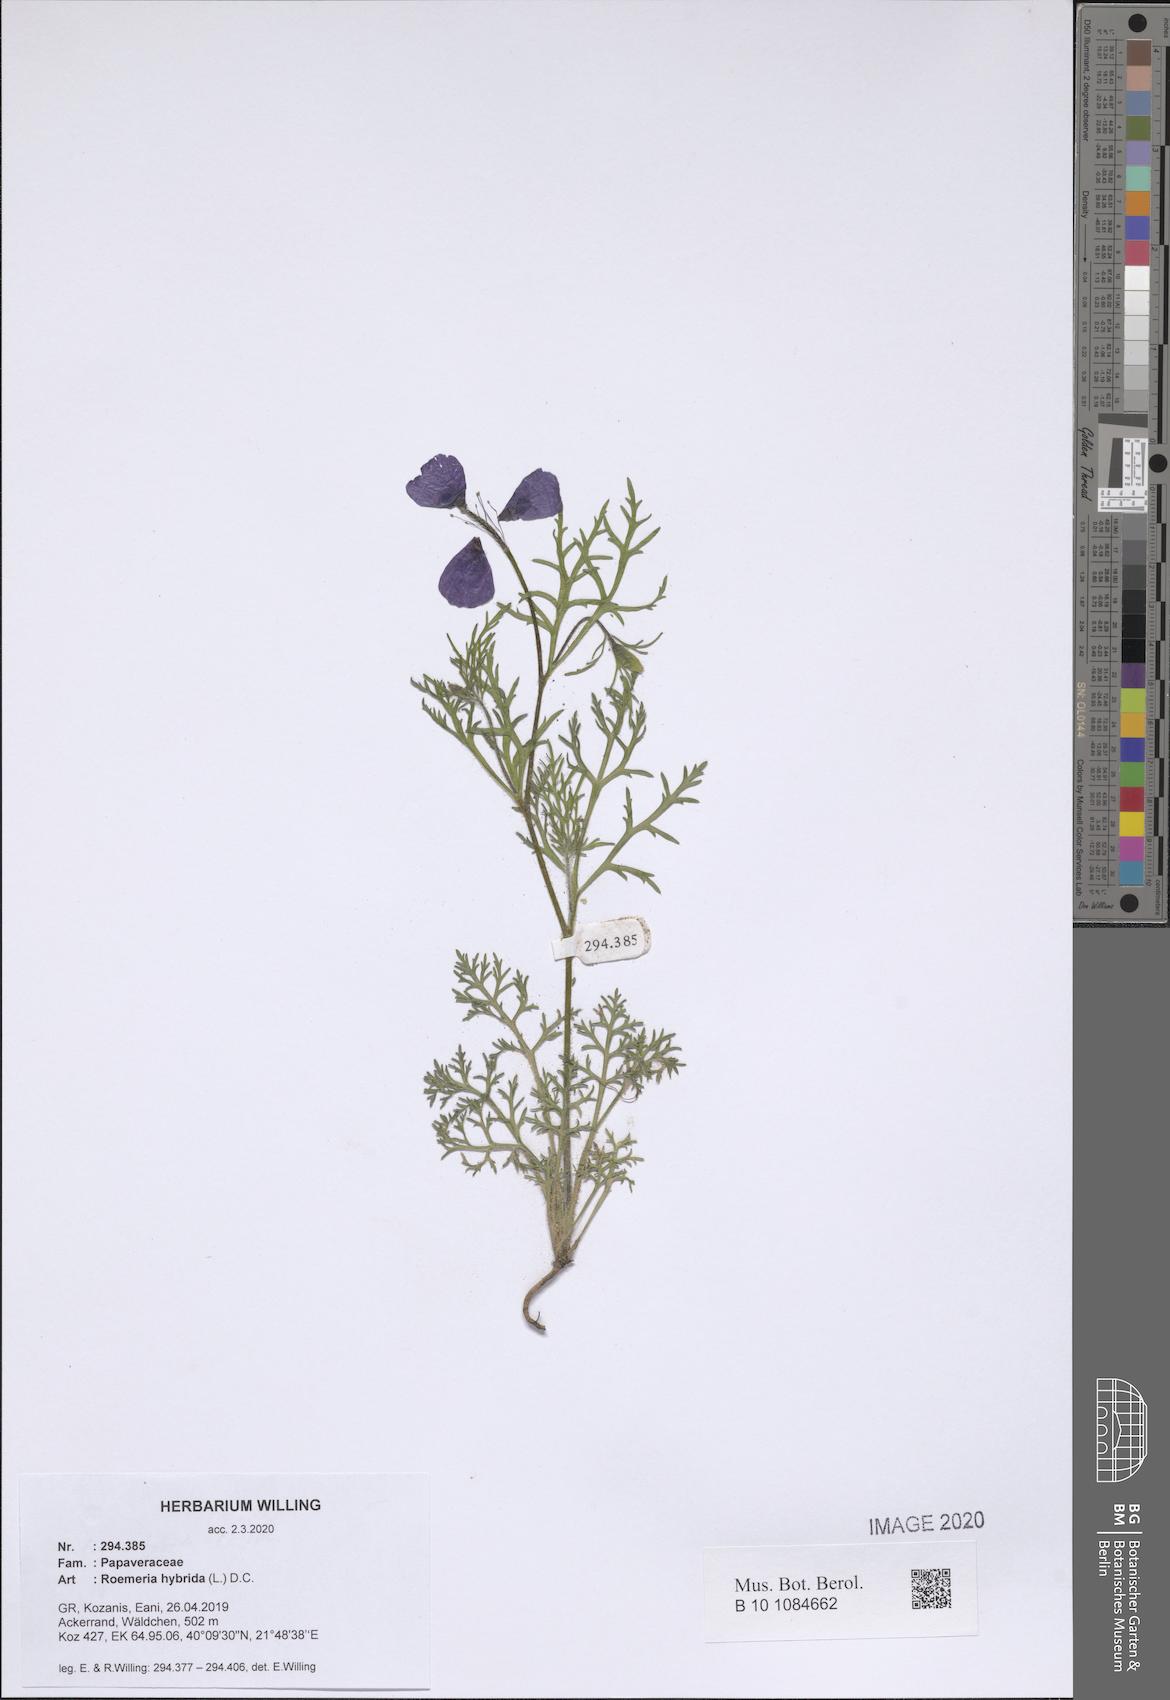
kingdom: Plantae
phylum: Tracheophyta
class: Magnoliopsida
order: Ranunculales
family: Papaveraceae
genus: Roemeria
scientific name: Roemeria hybrida
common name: Violet horned-poppy
